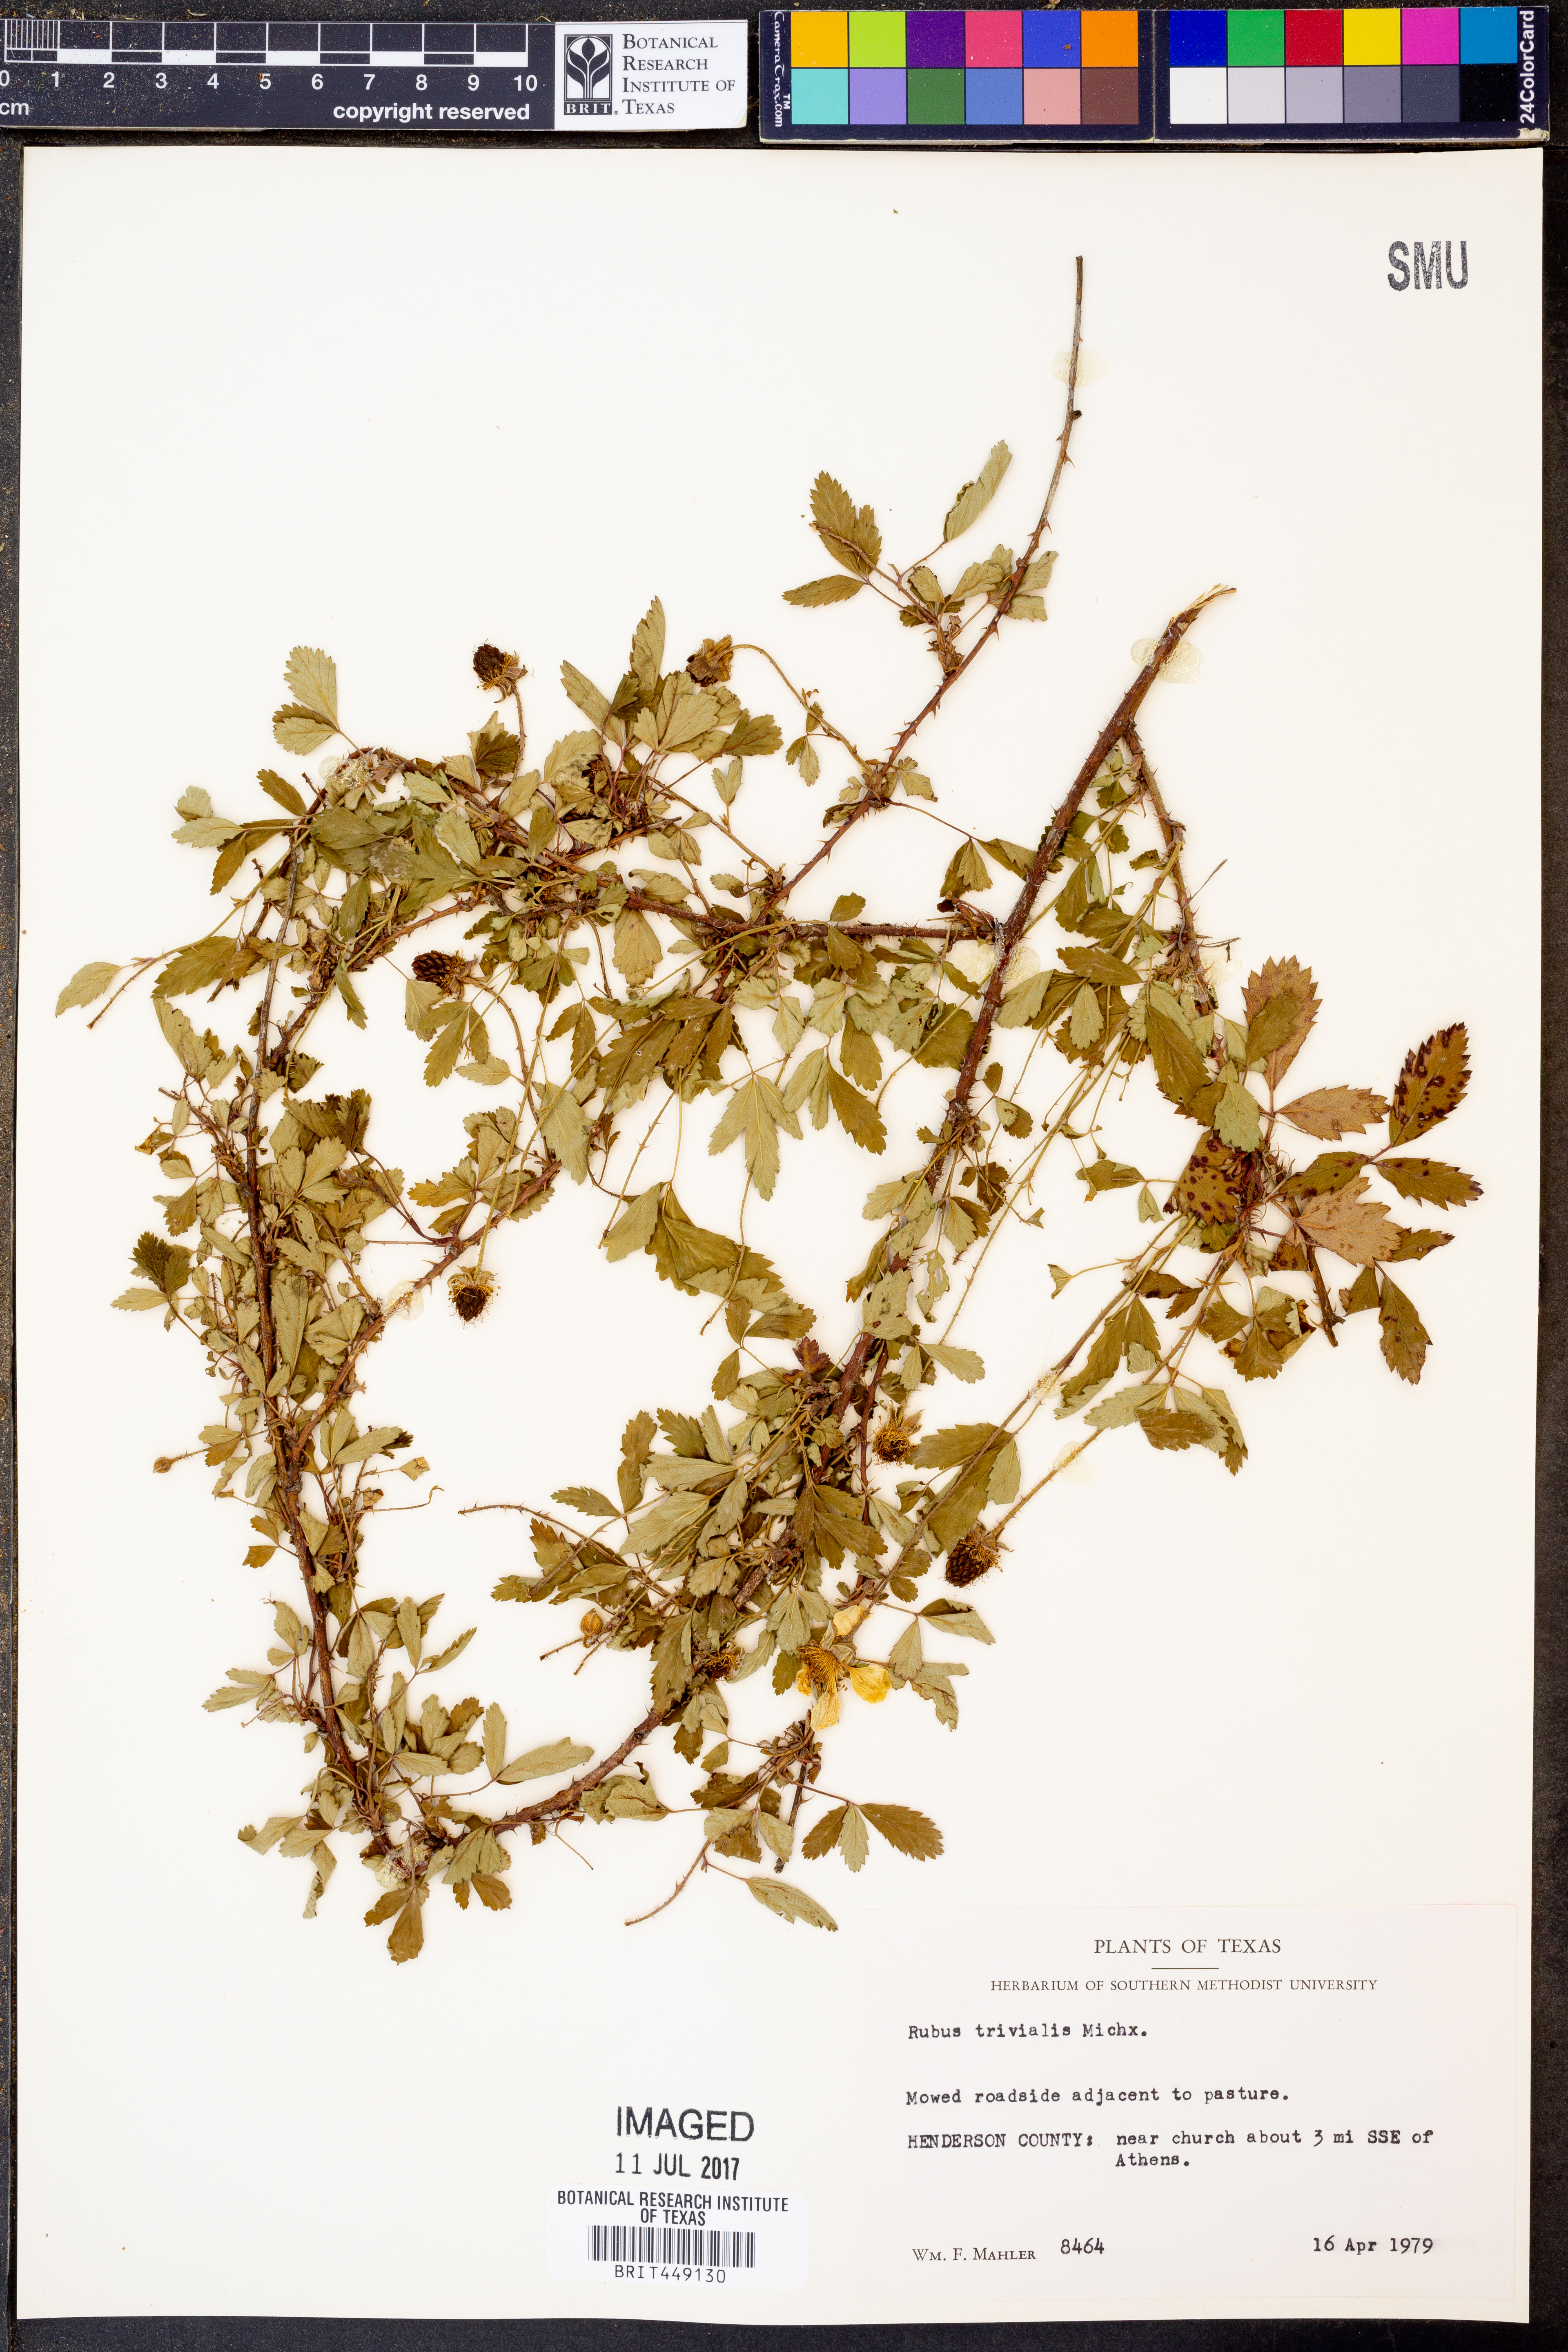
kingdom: Plantae
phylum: Tracheophyta
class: Magnoliopsida
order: Rosales
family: Rosaceae
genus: Rubus
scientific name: Rubus trivialis
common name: Southern dewberry
